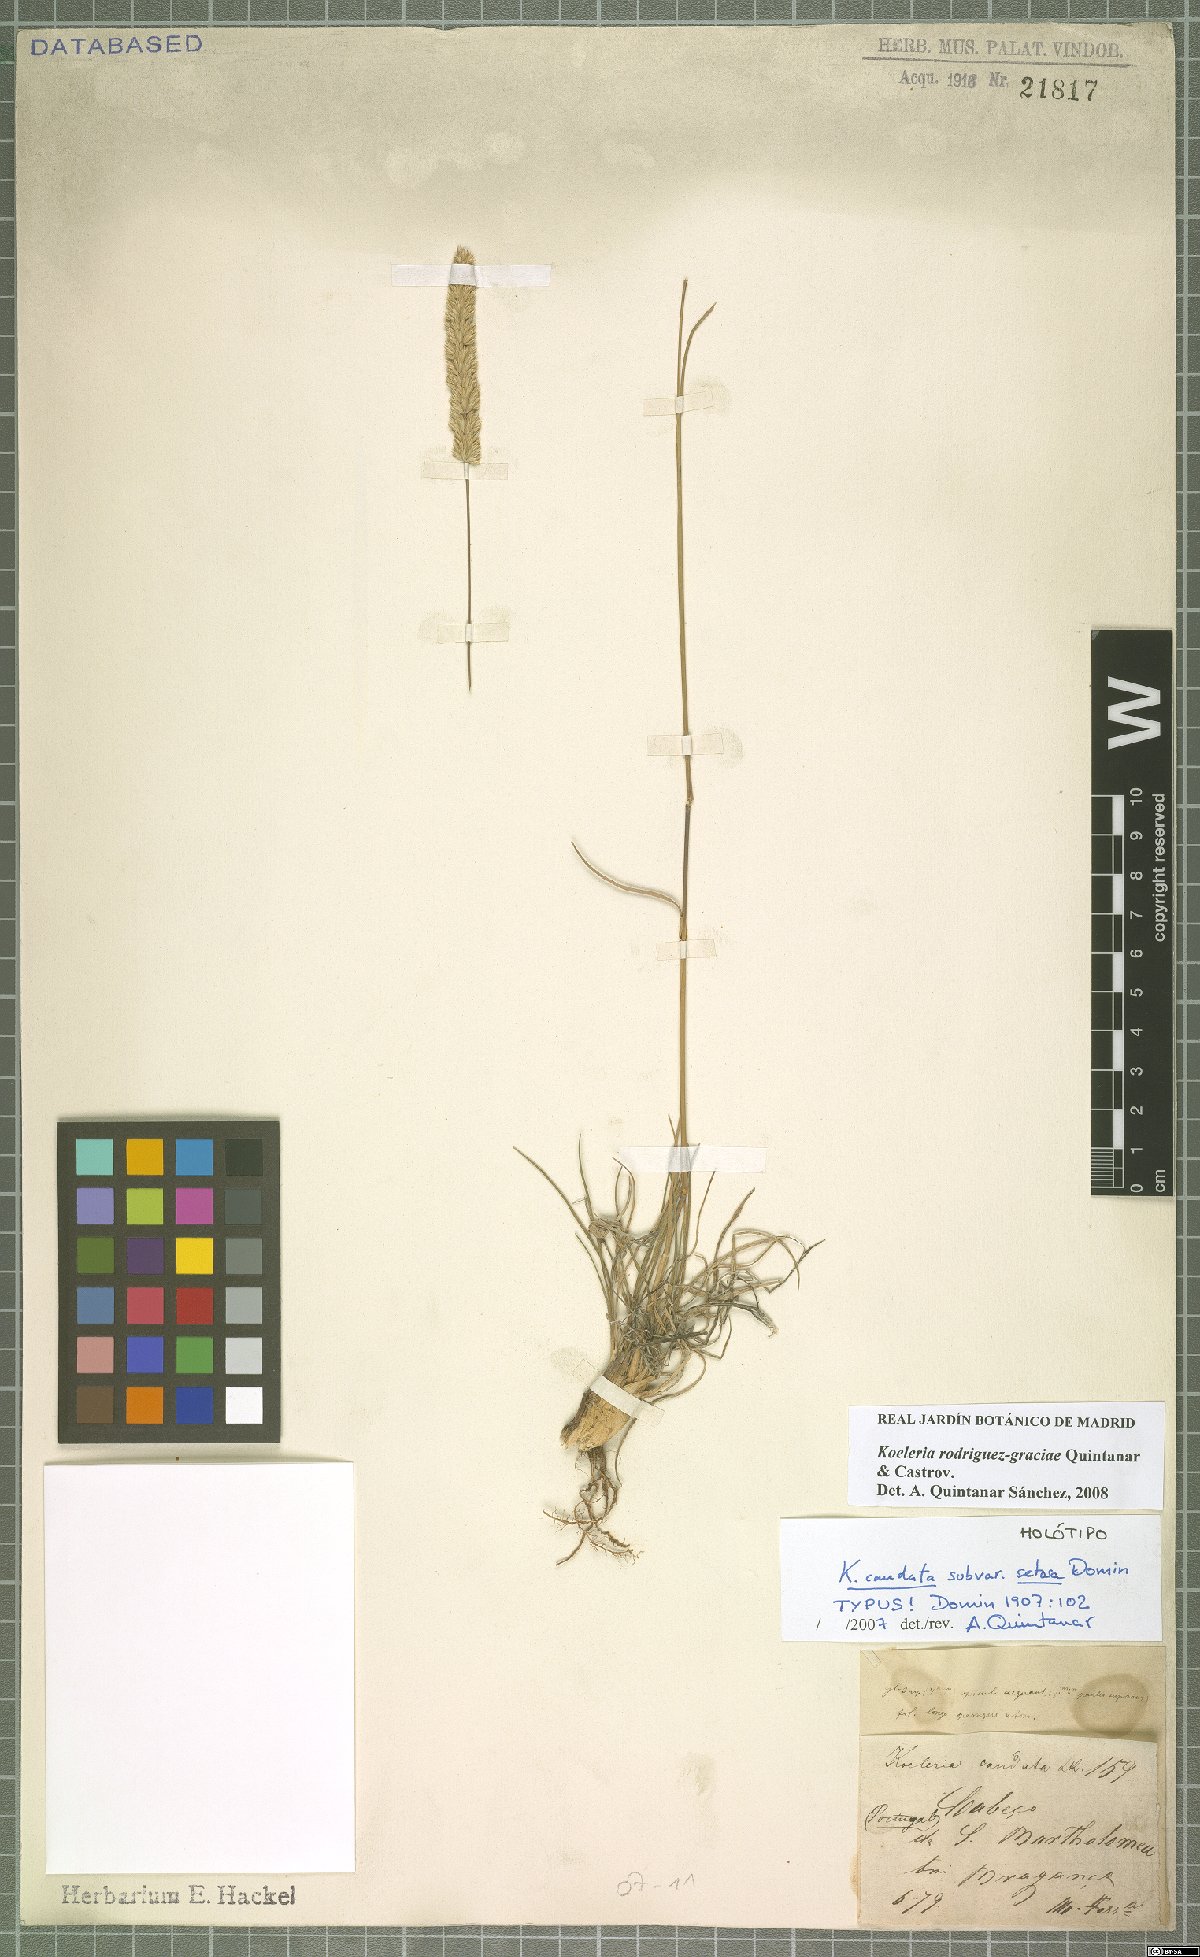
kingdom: Plantae
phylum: Tracheophyta
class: Liliopsida
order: Poales
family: Poaceae
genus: Koeleria
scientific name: Koeleria rodriguez-graciae
